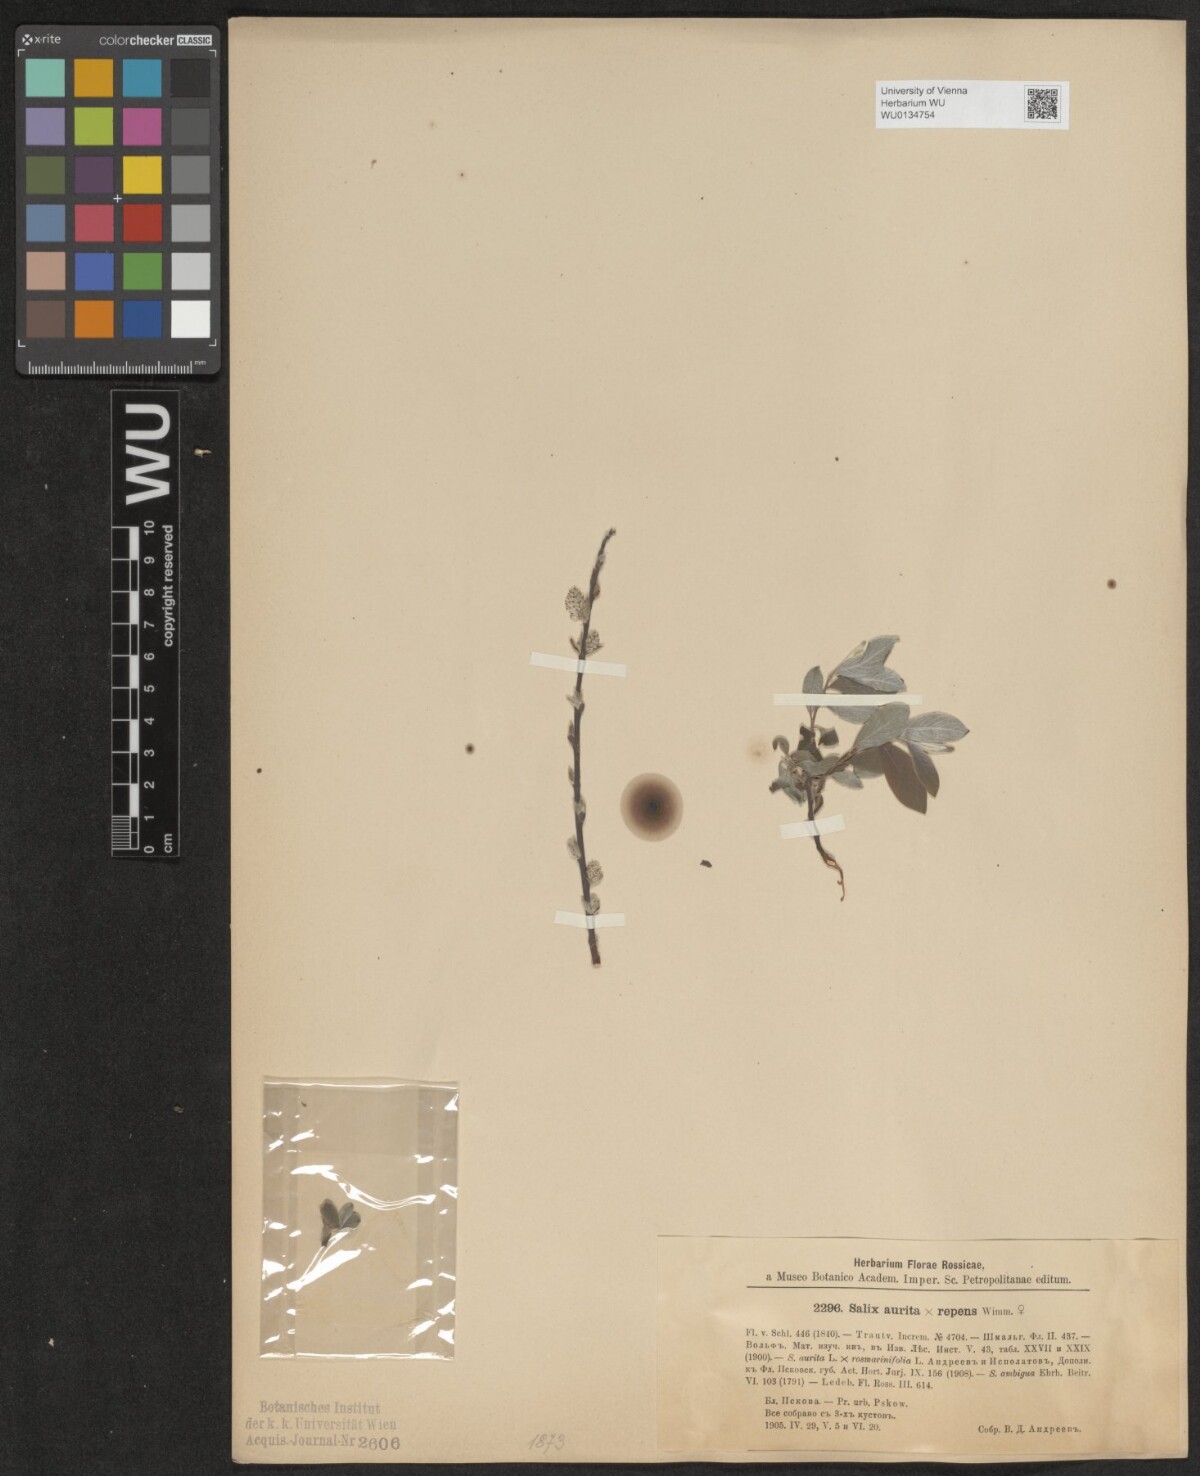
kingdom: Plantae
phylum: Tracheophyta
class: Magnoliopsida
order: Malpighiales
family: Salicaceae
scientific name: Salicaceae
